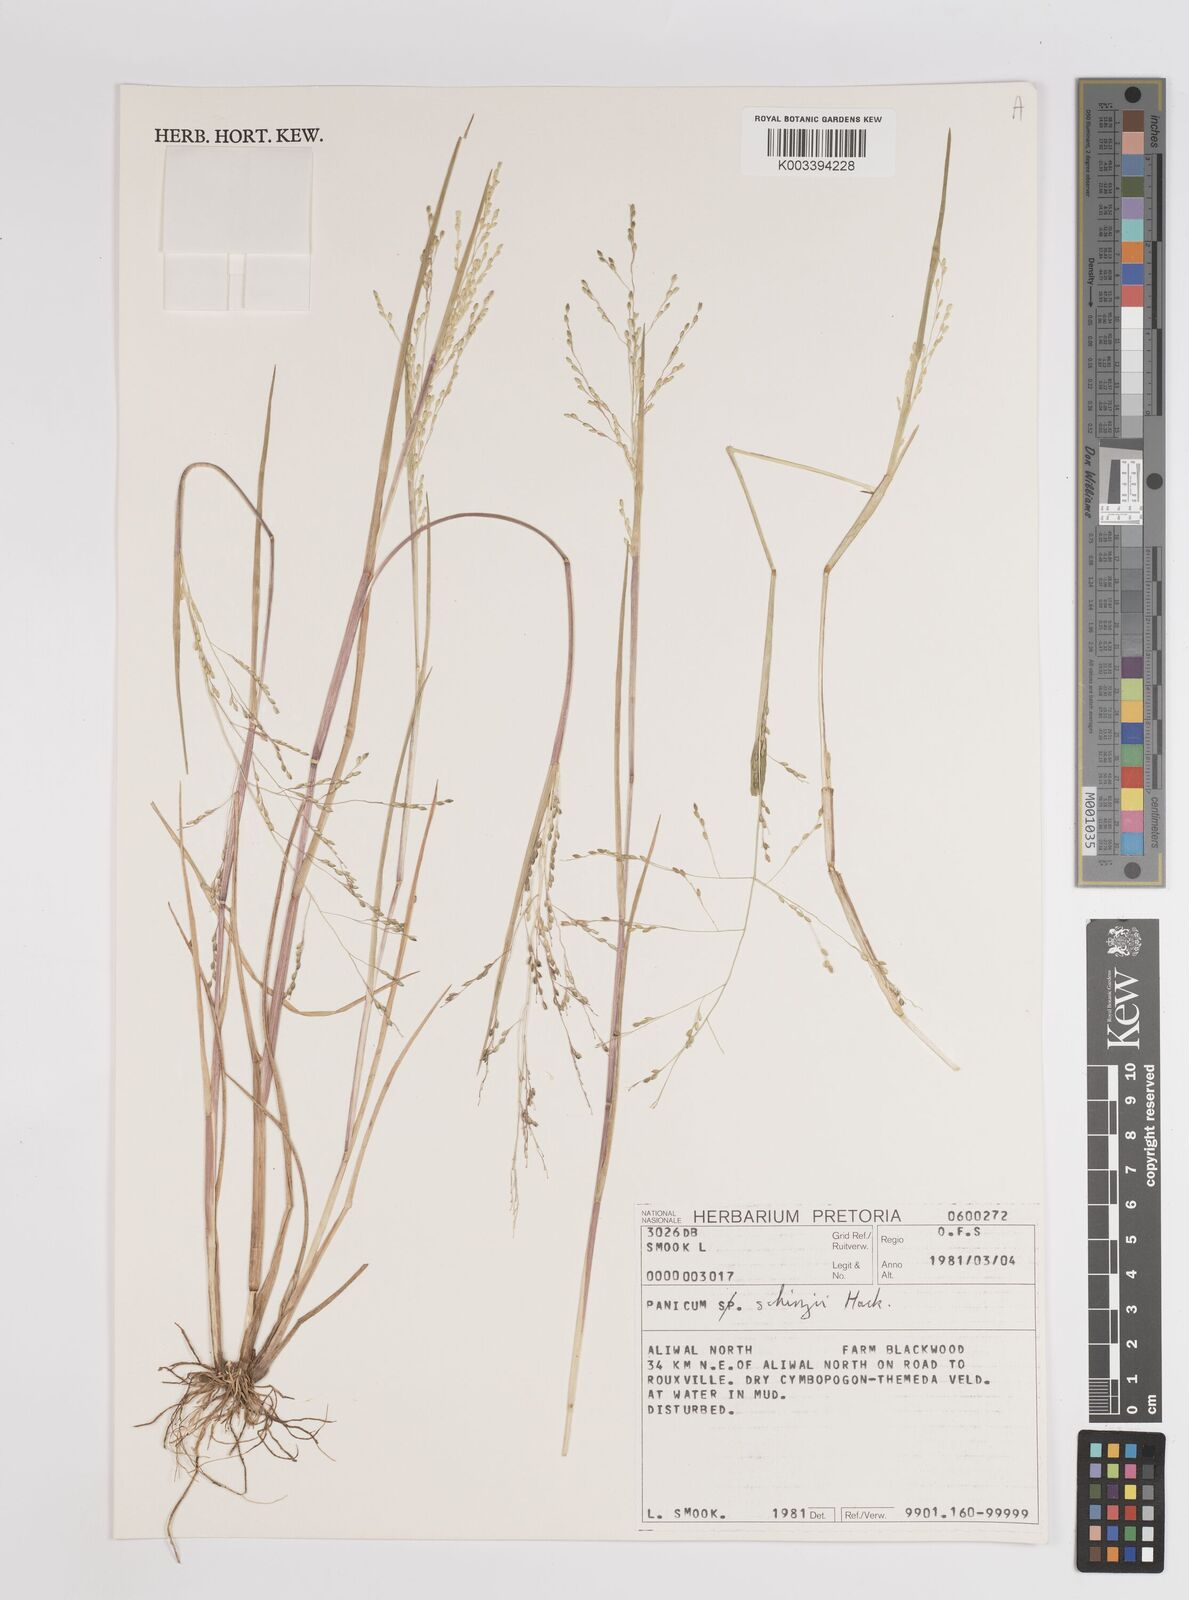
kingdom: Plantae
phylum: Tracheophyta
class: Liliopsida
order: Poales
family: Poaceae
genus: Panicum
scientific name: Panicum schinzii
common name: Sweet grass
